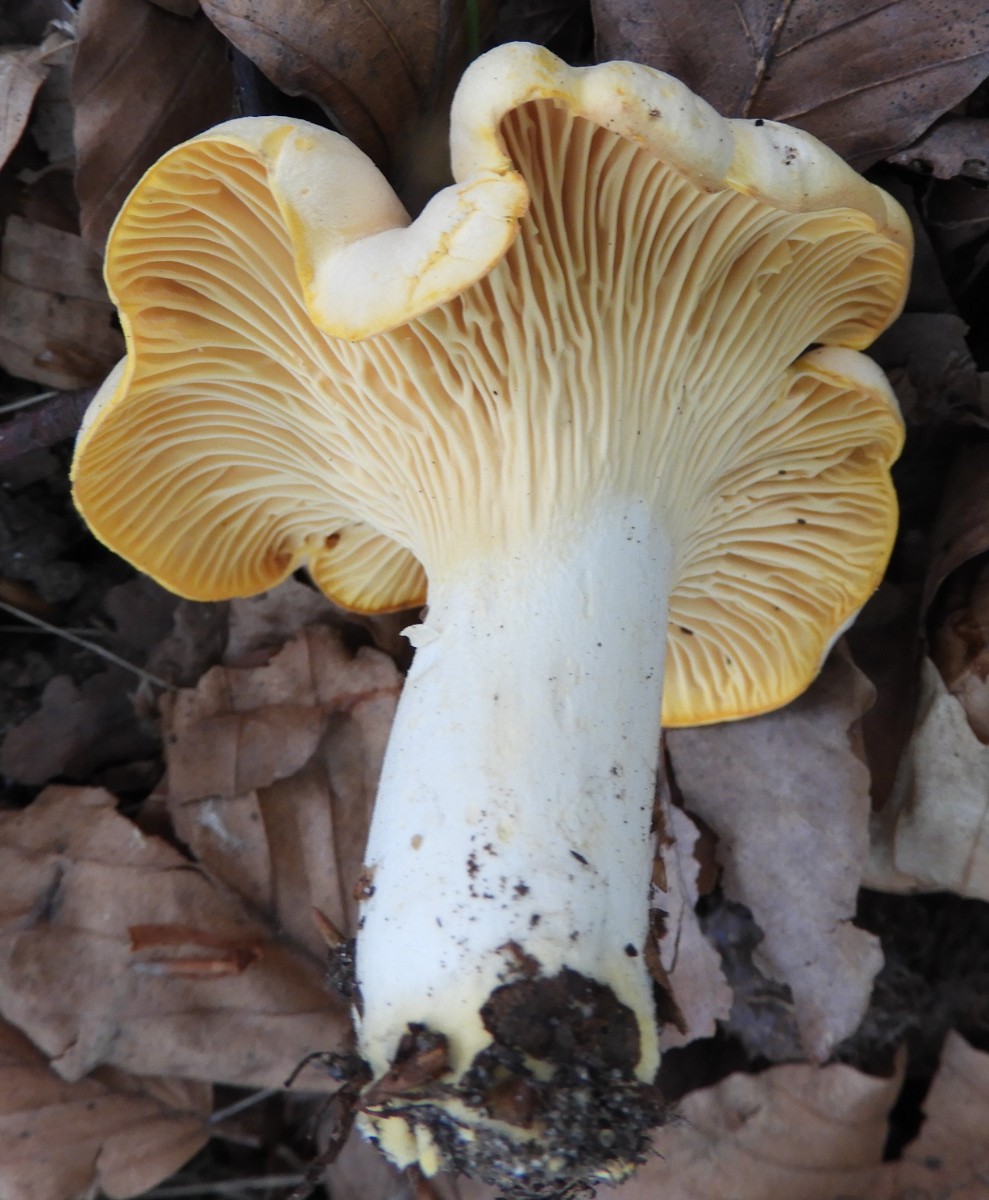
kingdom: Fungi
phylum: Basidiomycota
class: Agaricomycetes
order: Cantharellales
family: Hydnaceae
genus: Cantharellus
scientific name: Cantharellus pallens
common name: bleg kantarel
